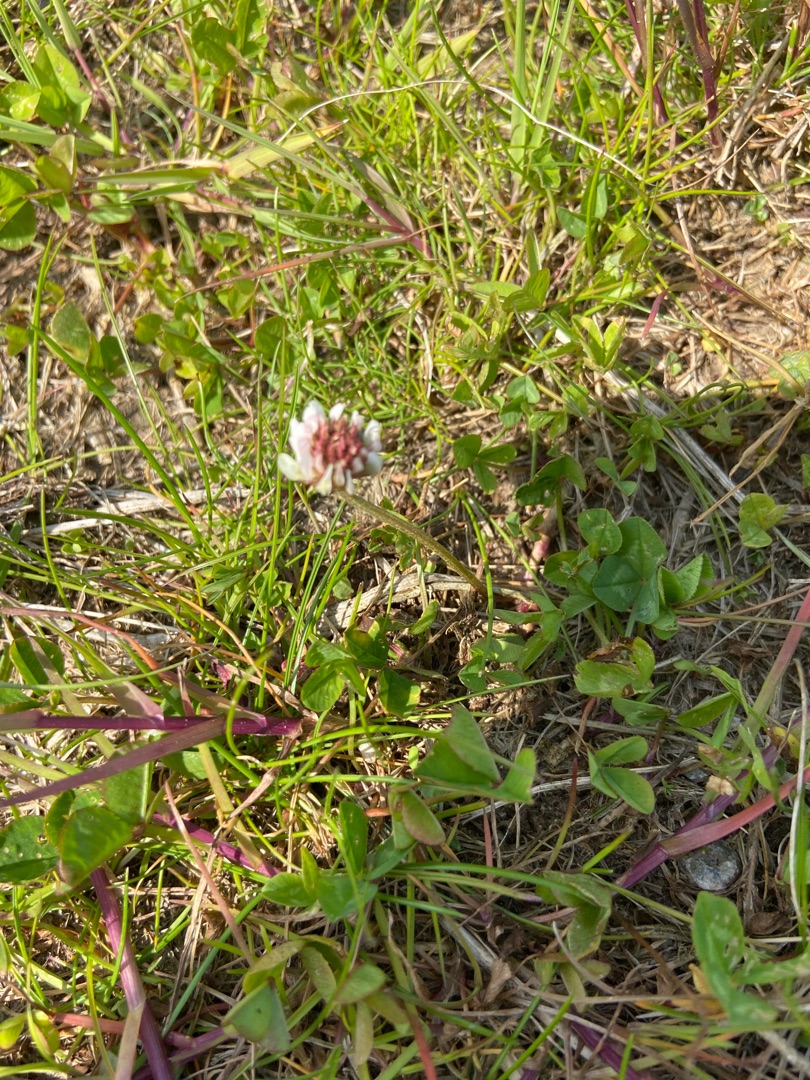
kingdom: Plantae
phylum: Tracheophyta
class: Magnoliopsida
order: Fabales
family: Fabaceae
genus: Trifolium
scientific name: Trifolium repens
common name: Hvid-kløver
